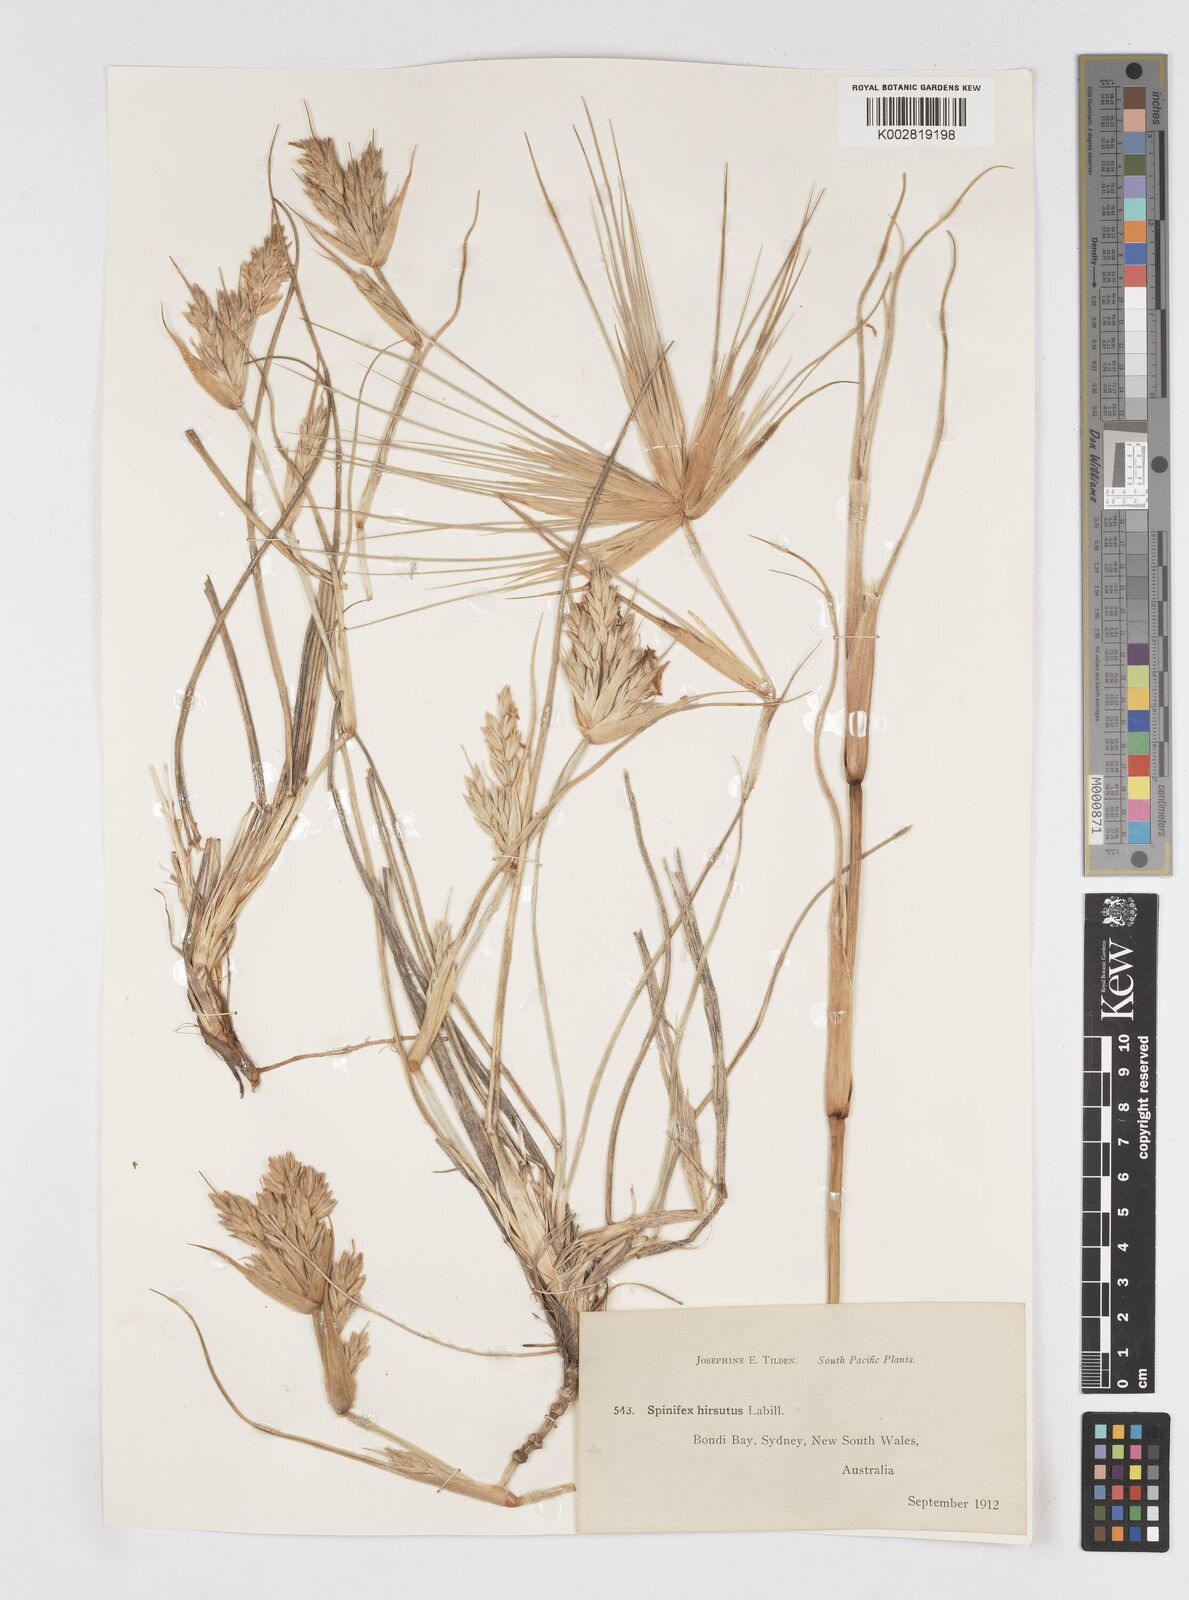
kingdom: Plantae
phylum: Tracheophyta
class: Liliopsida
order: Poales
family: Poaceae
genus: Spinifex
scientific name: Spinifex sericeus
